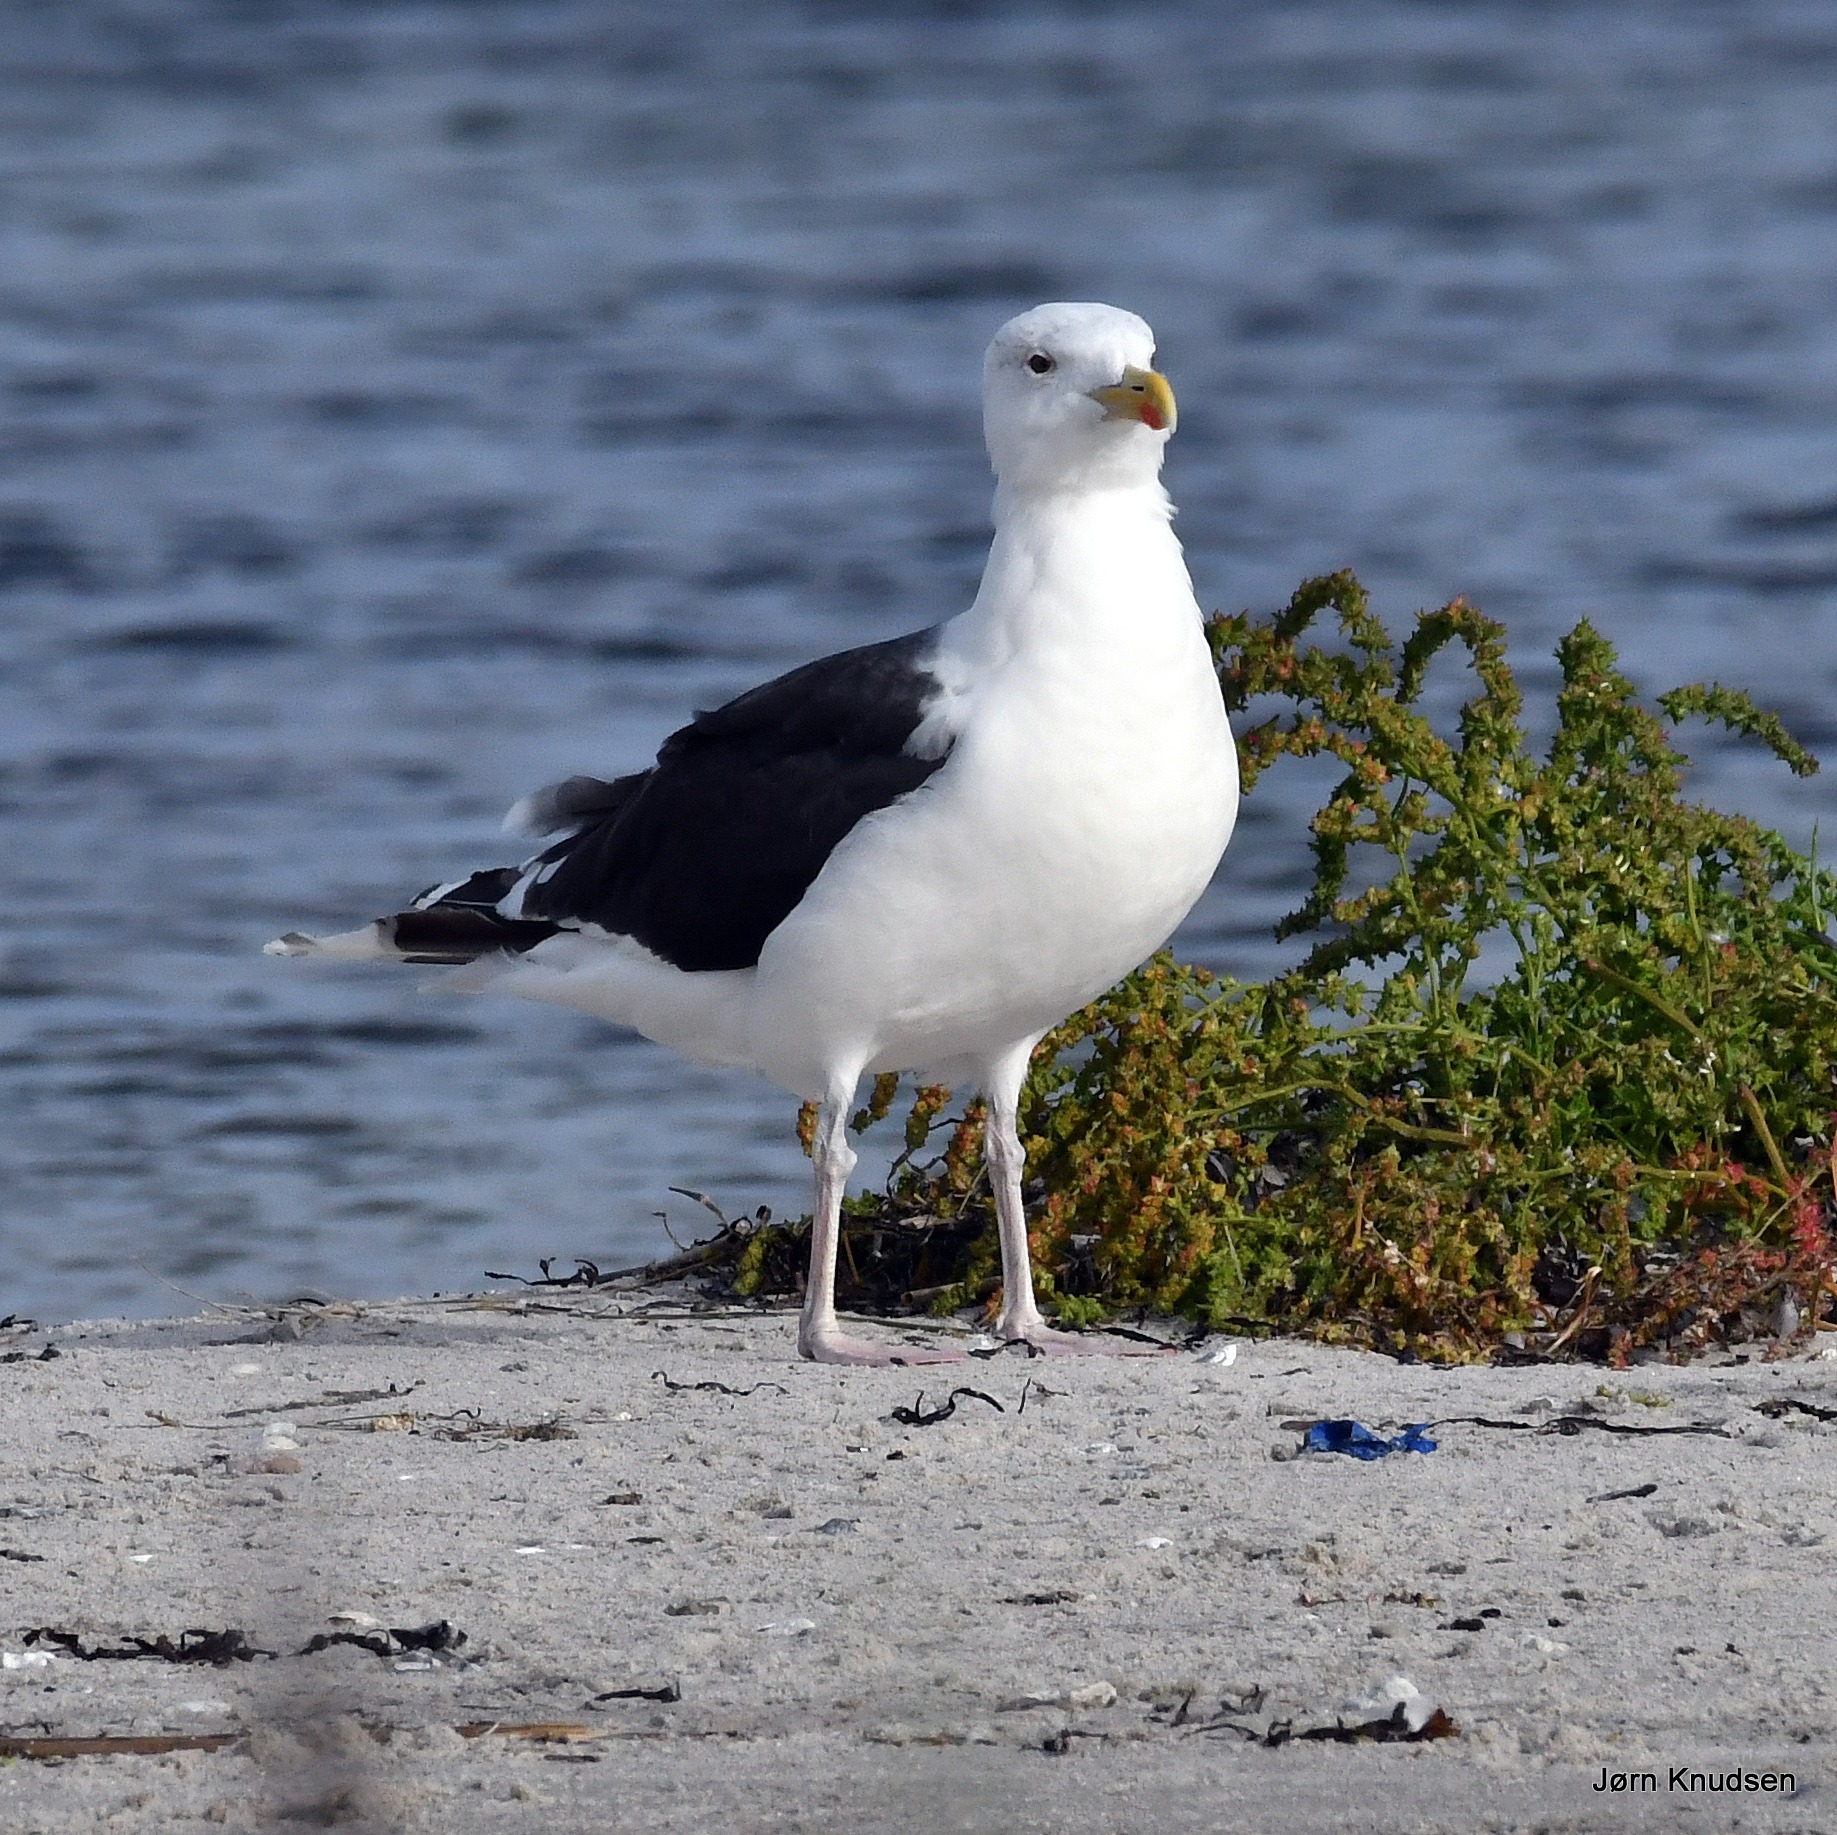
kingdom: Animalia
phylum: Chordata
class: Aves
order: Charadriiformes
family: Laridae
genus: Larus
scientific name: Larus marinus
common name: Svartbag
